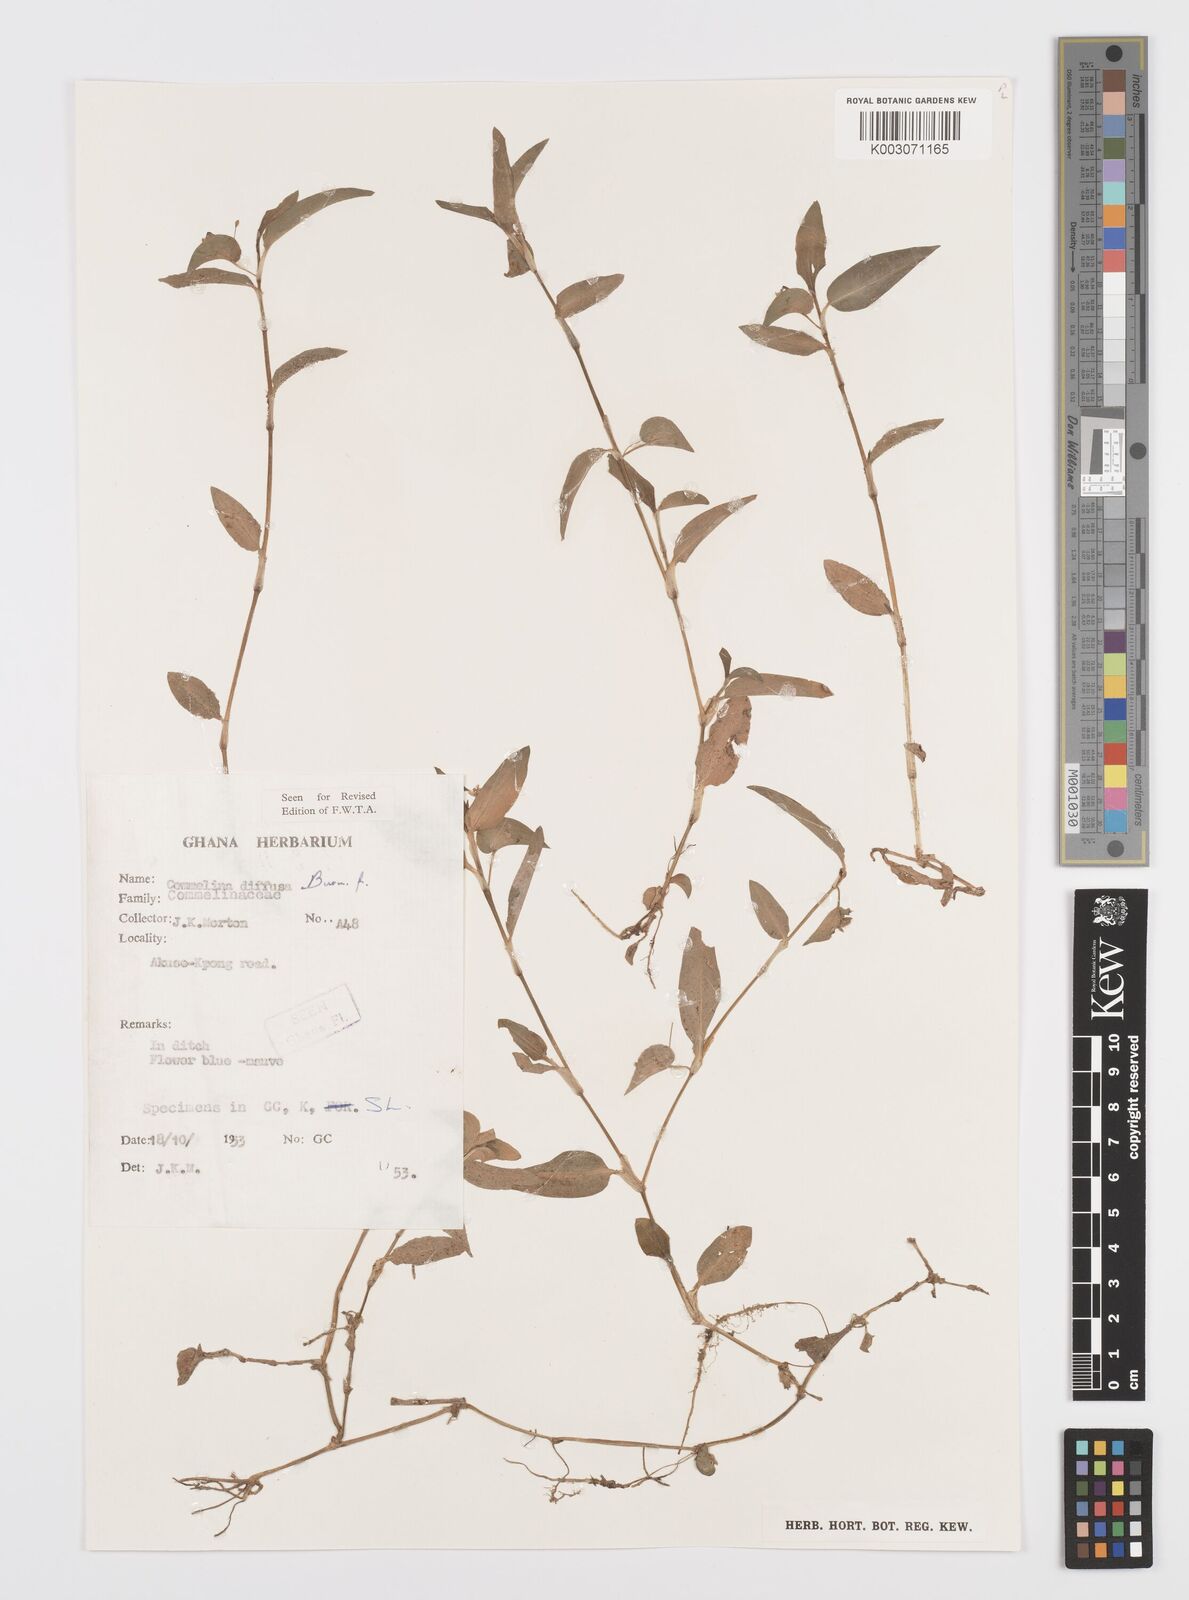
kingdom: Plantae
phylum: Tracheophyta
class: Liliopsida
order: Commelinales
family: Commelinaceae
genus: Commelina
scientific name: Commelina diffusa
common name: Climbing dayflower
